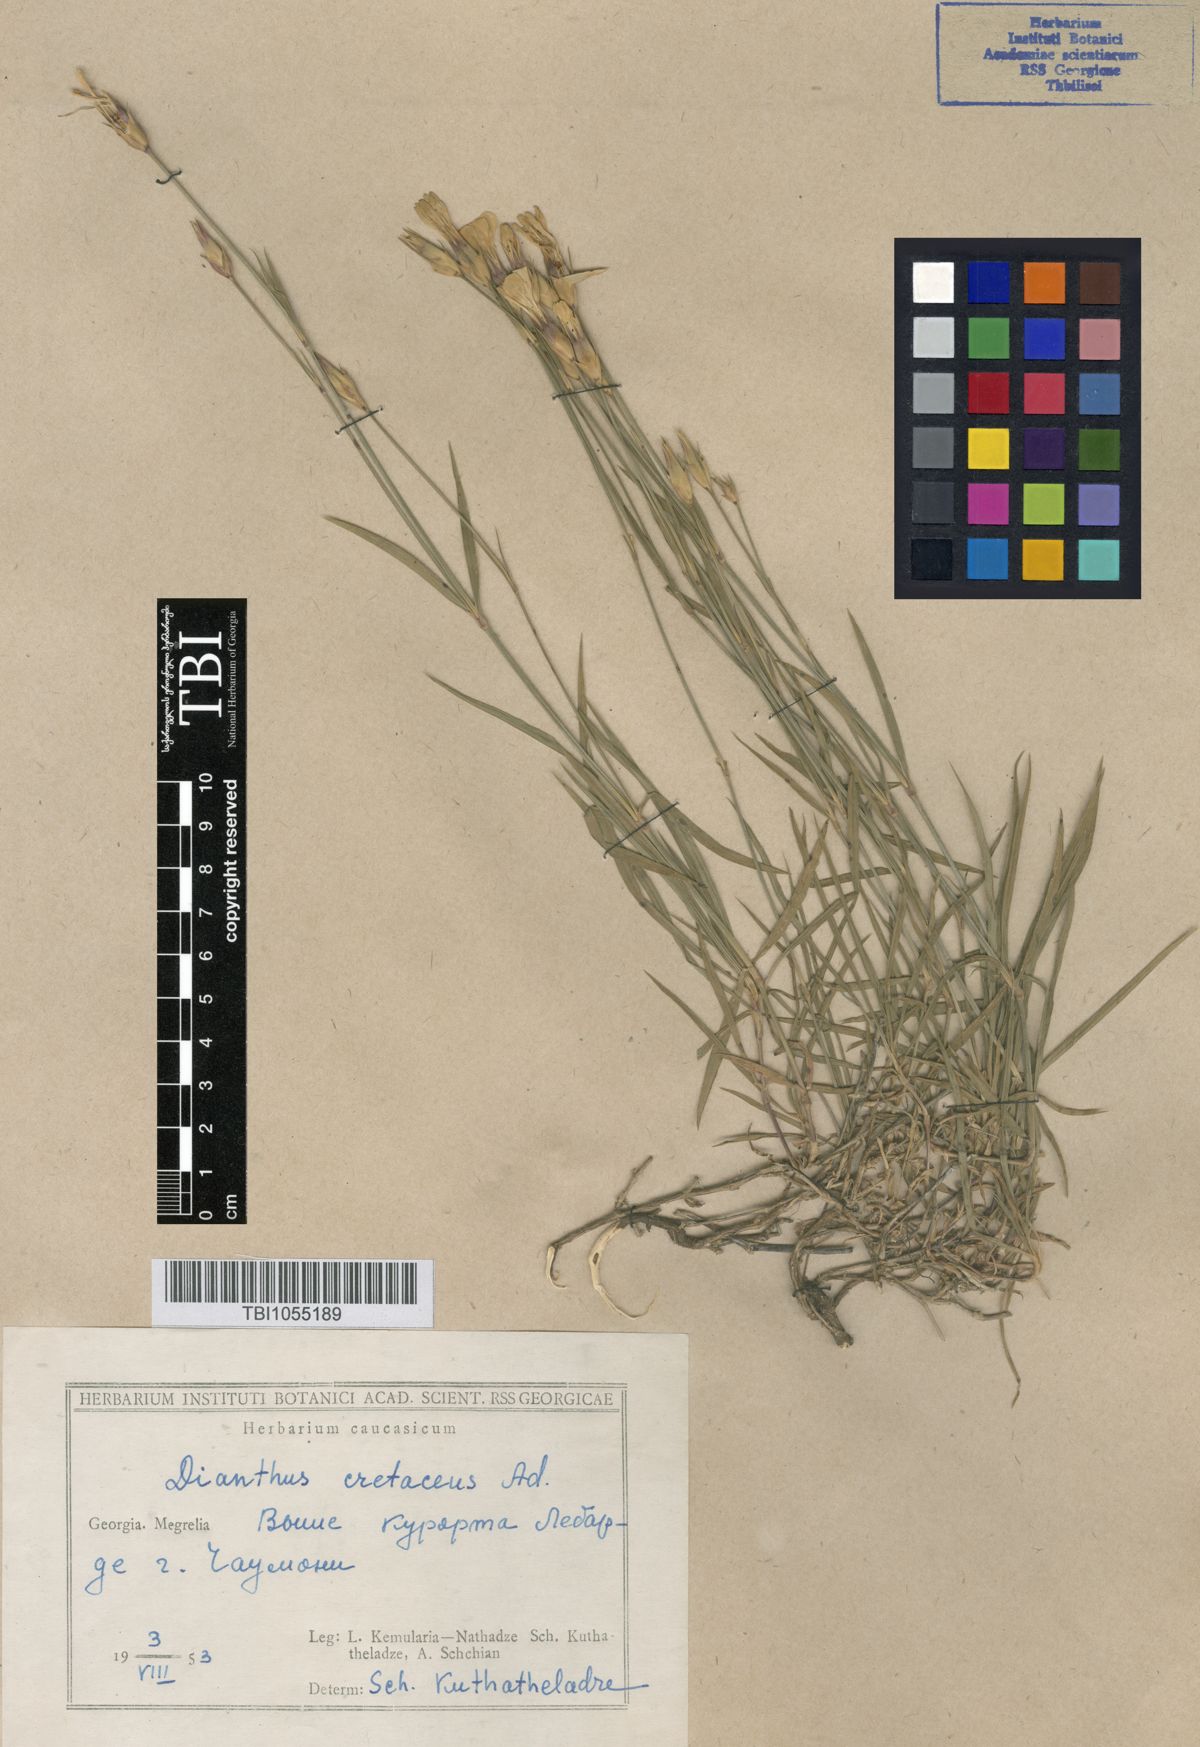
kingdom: Plantae
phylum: Tracheophyta
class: Magnoliopsida
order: Caryophyllales
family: Caryophyllaceae
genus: Dianthus
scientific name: Dianthus cretaceus
